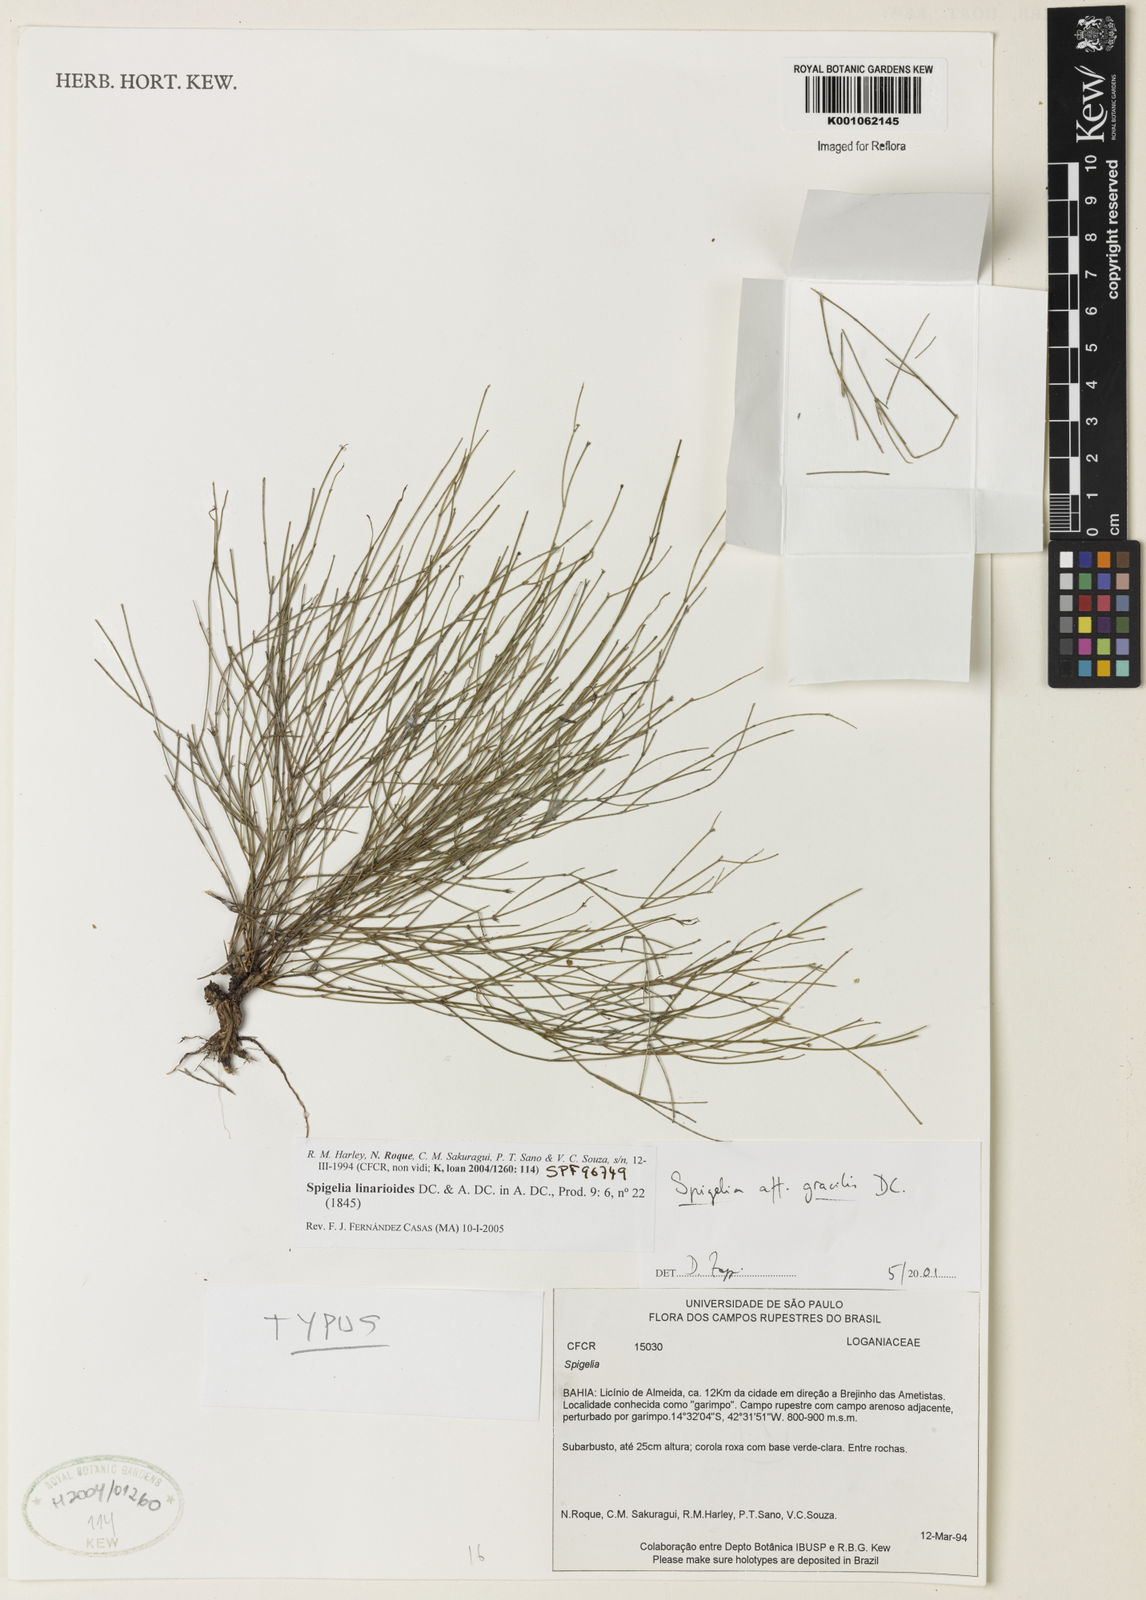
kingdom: Plantae
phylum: Tracheophyta
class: Magnoliopsida
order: Gentianales
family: Loganiaceae
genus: Spigelia
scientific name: Spigelia linarioides
